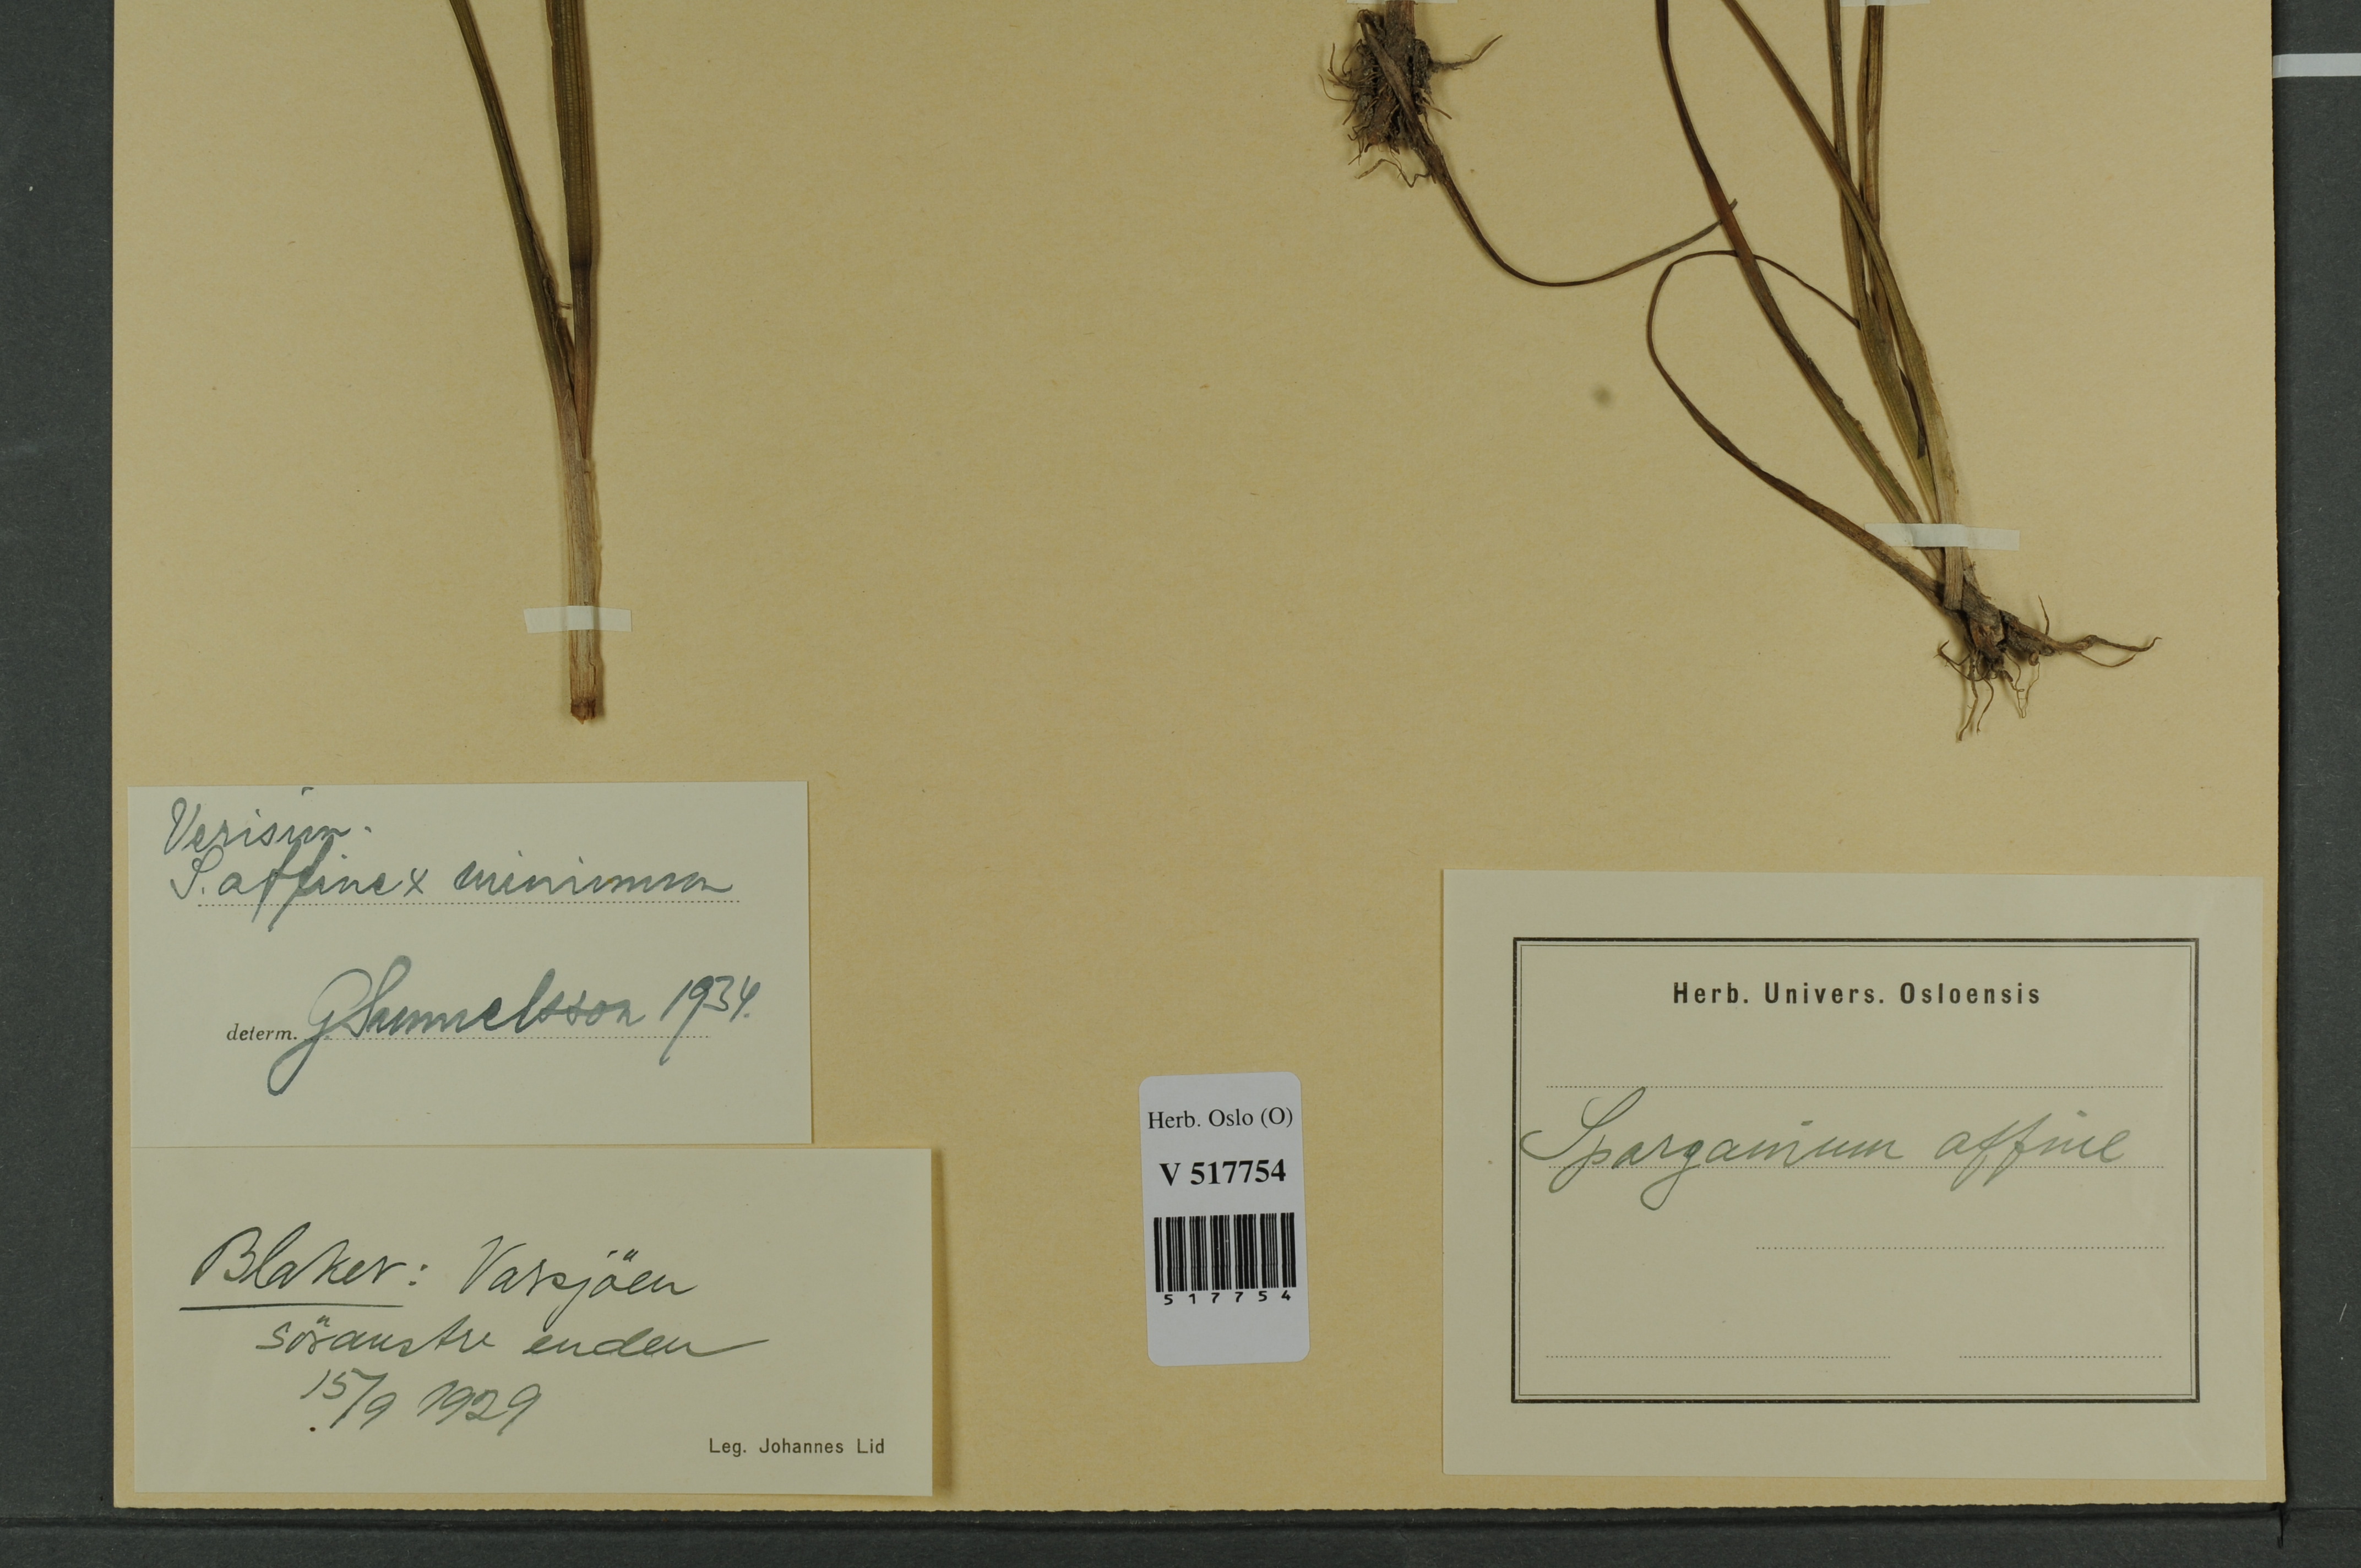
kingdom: Plantae
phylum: Tracheophyta
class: Liliopsida
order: Poales
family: Typhaceae
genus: Sparganium
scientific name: Sparganium
